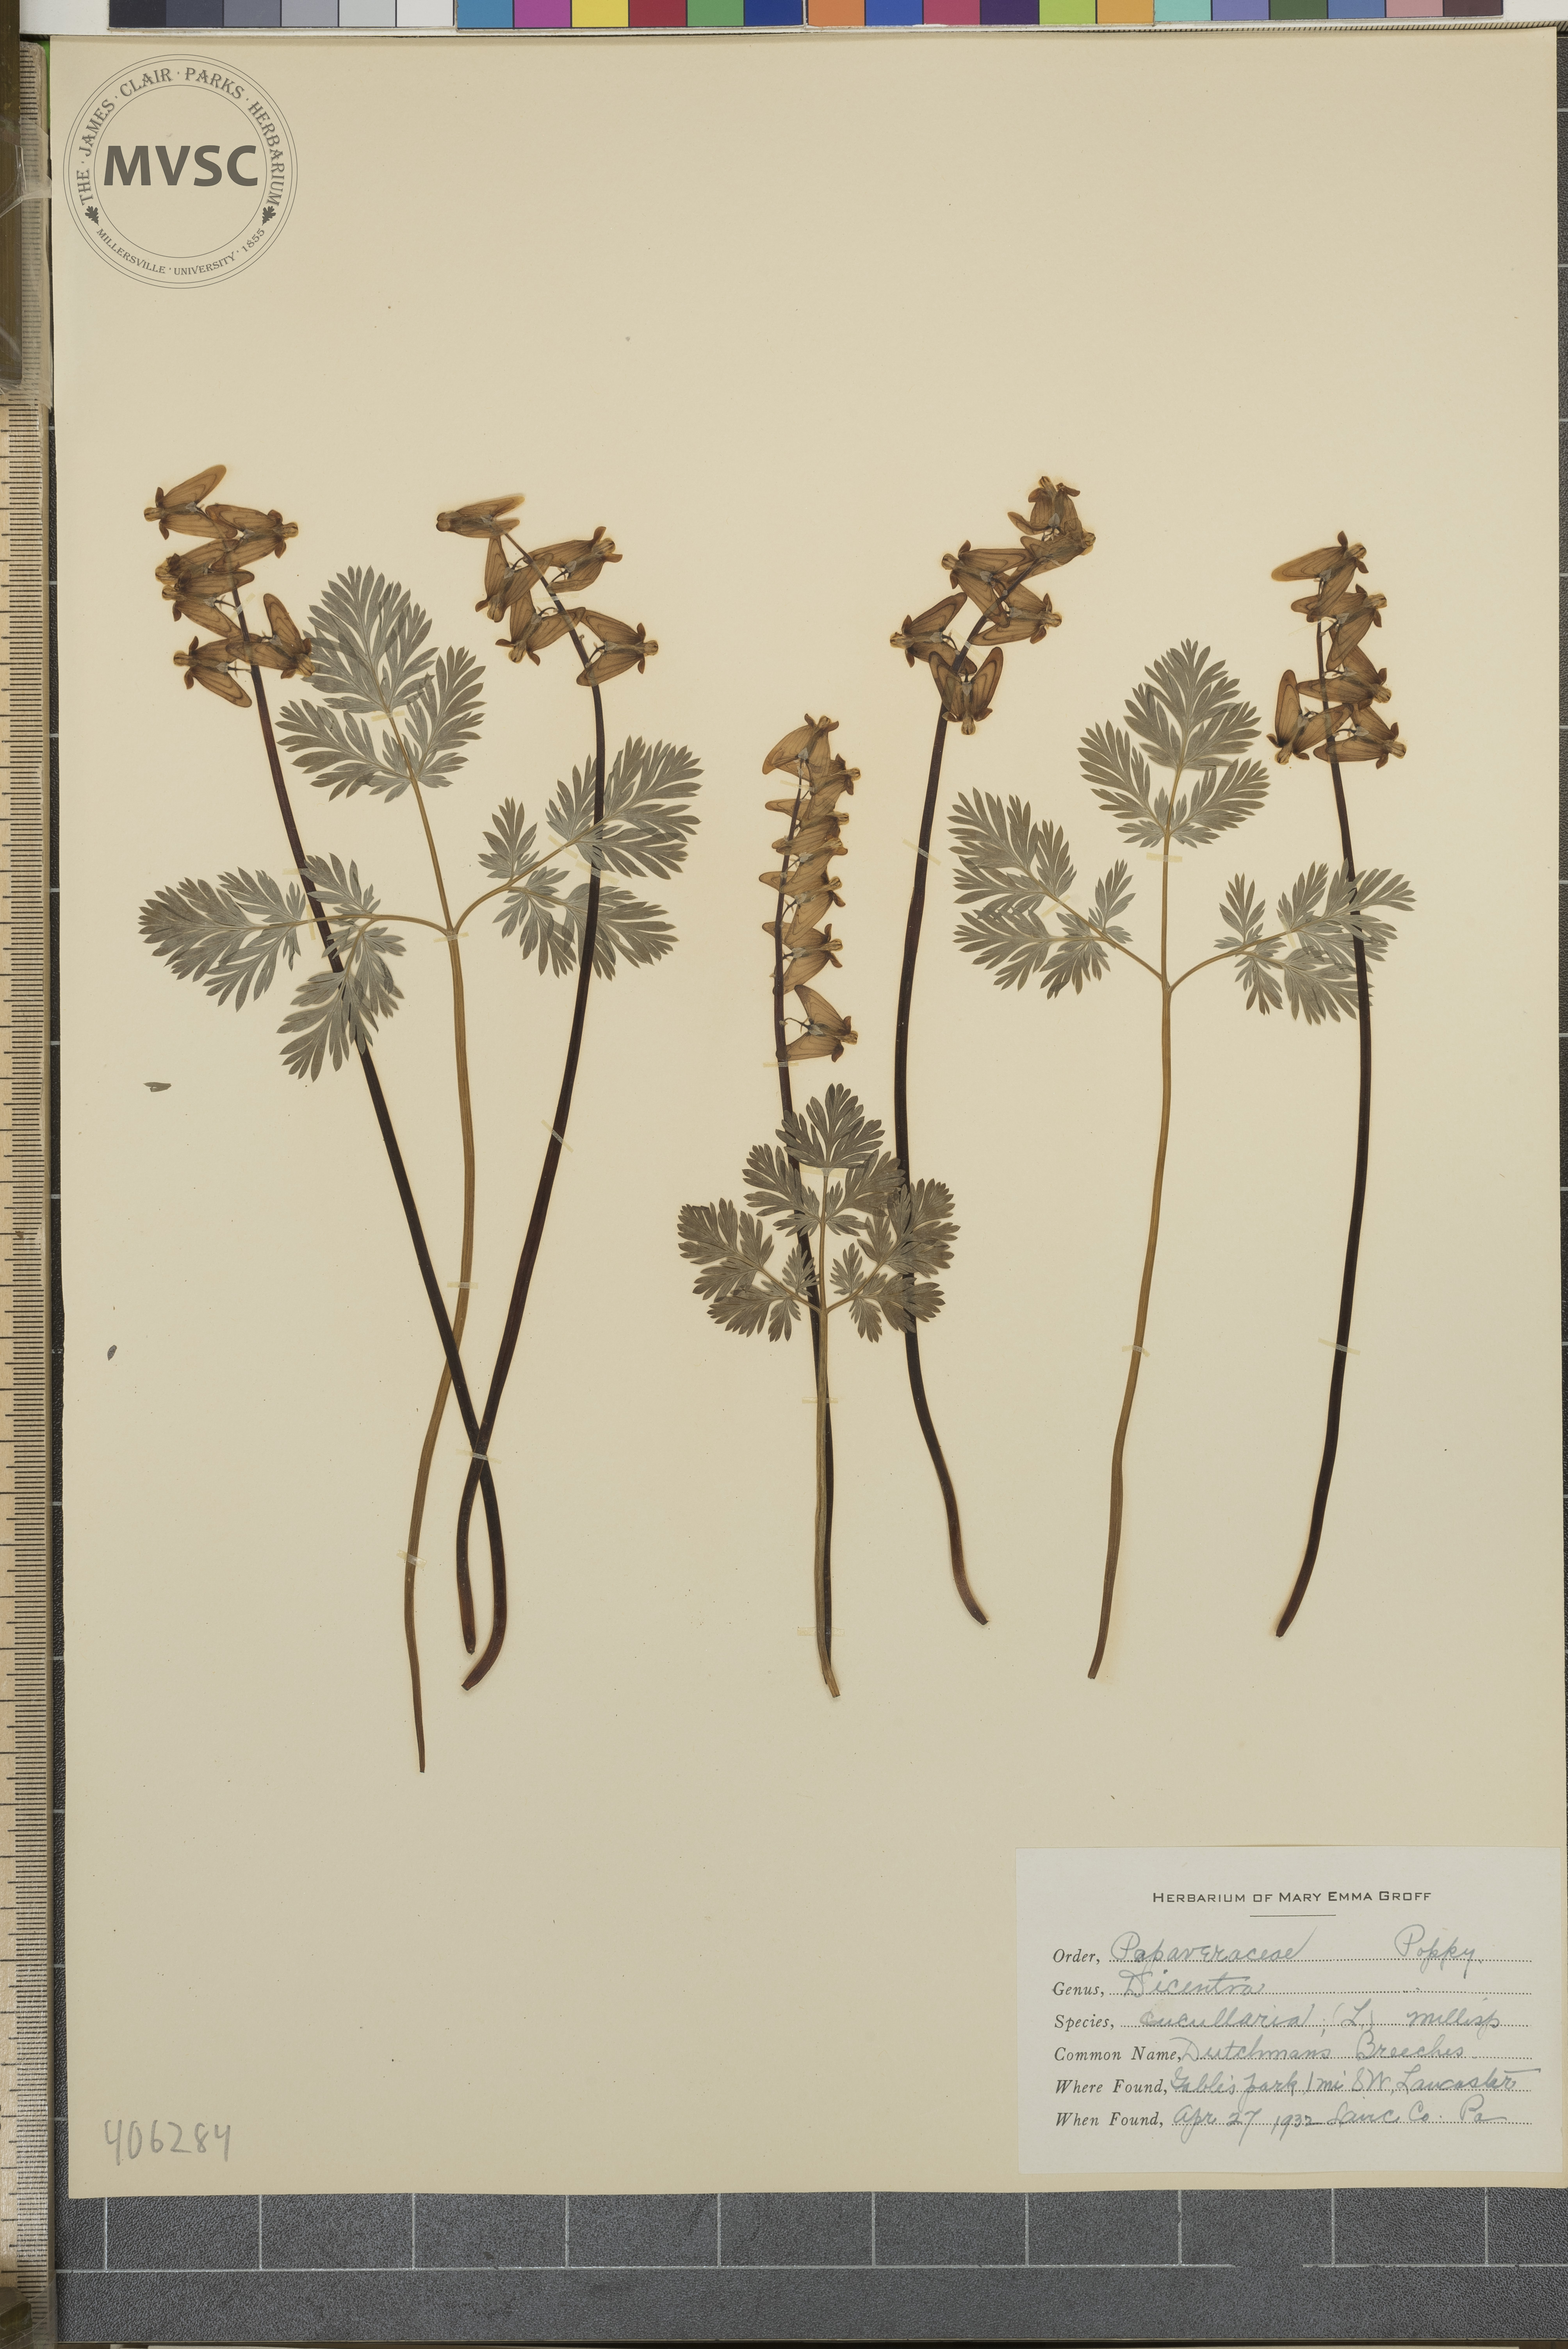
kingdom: Plantae
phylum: Tracheophyta
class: Magnoliopsida
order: Ranunculales
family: Papaveraceae
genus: Dicentra
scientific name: Dicentra cucullaria
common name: Dutchman's Breeches
